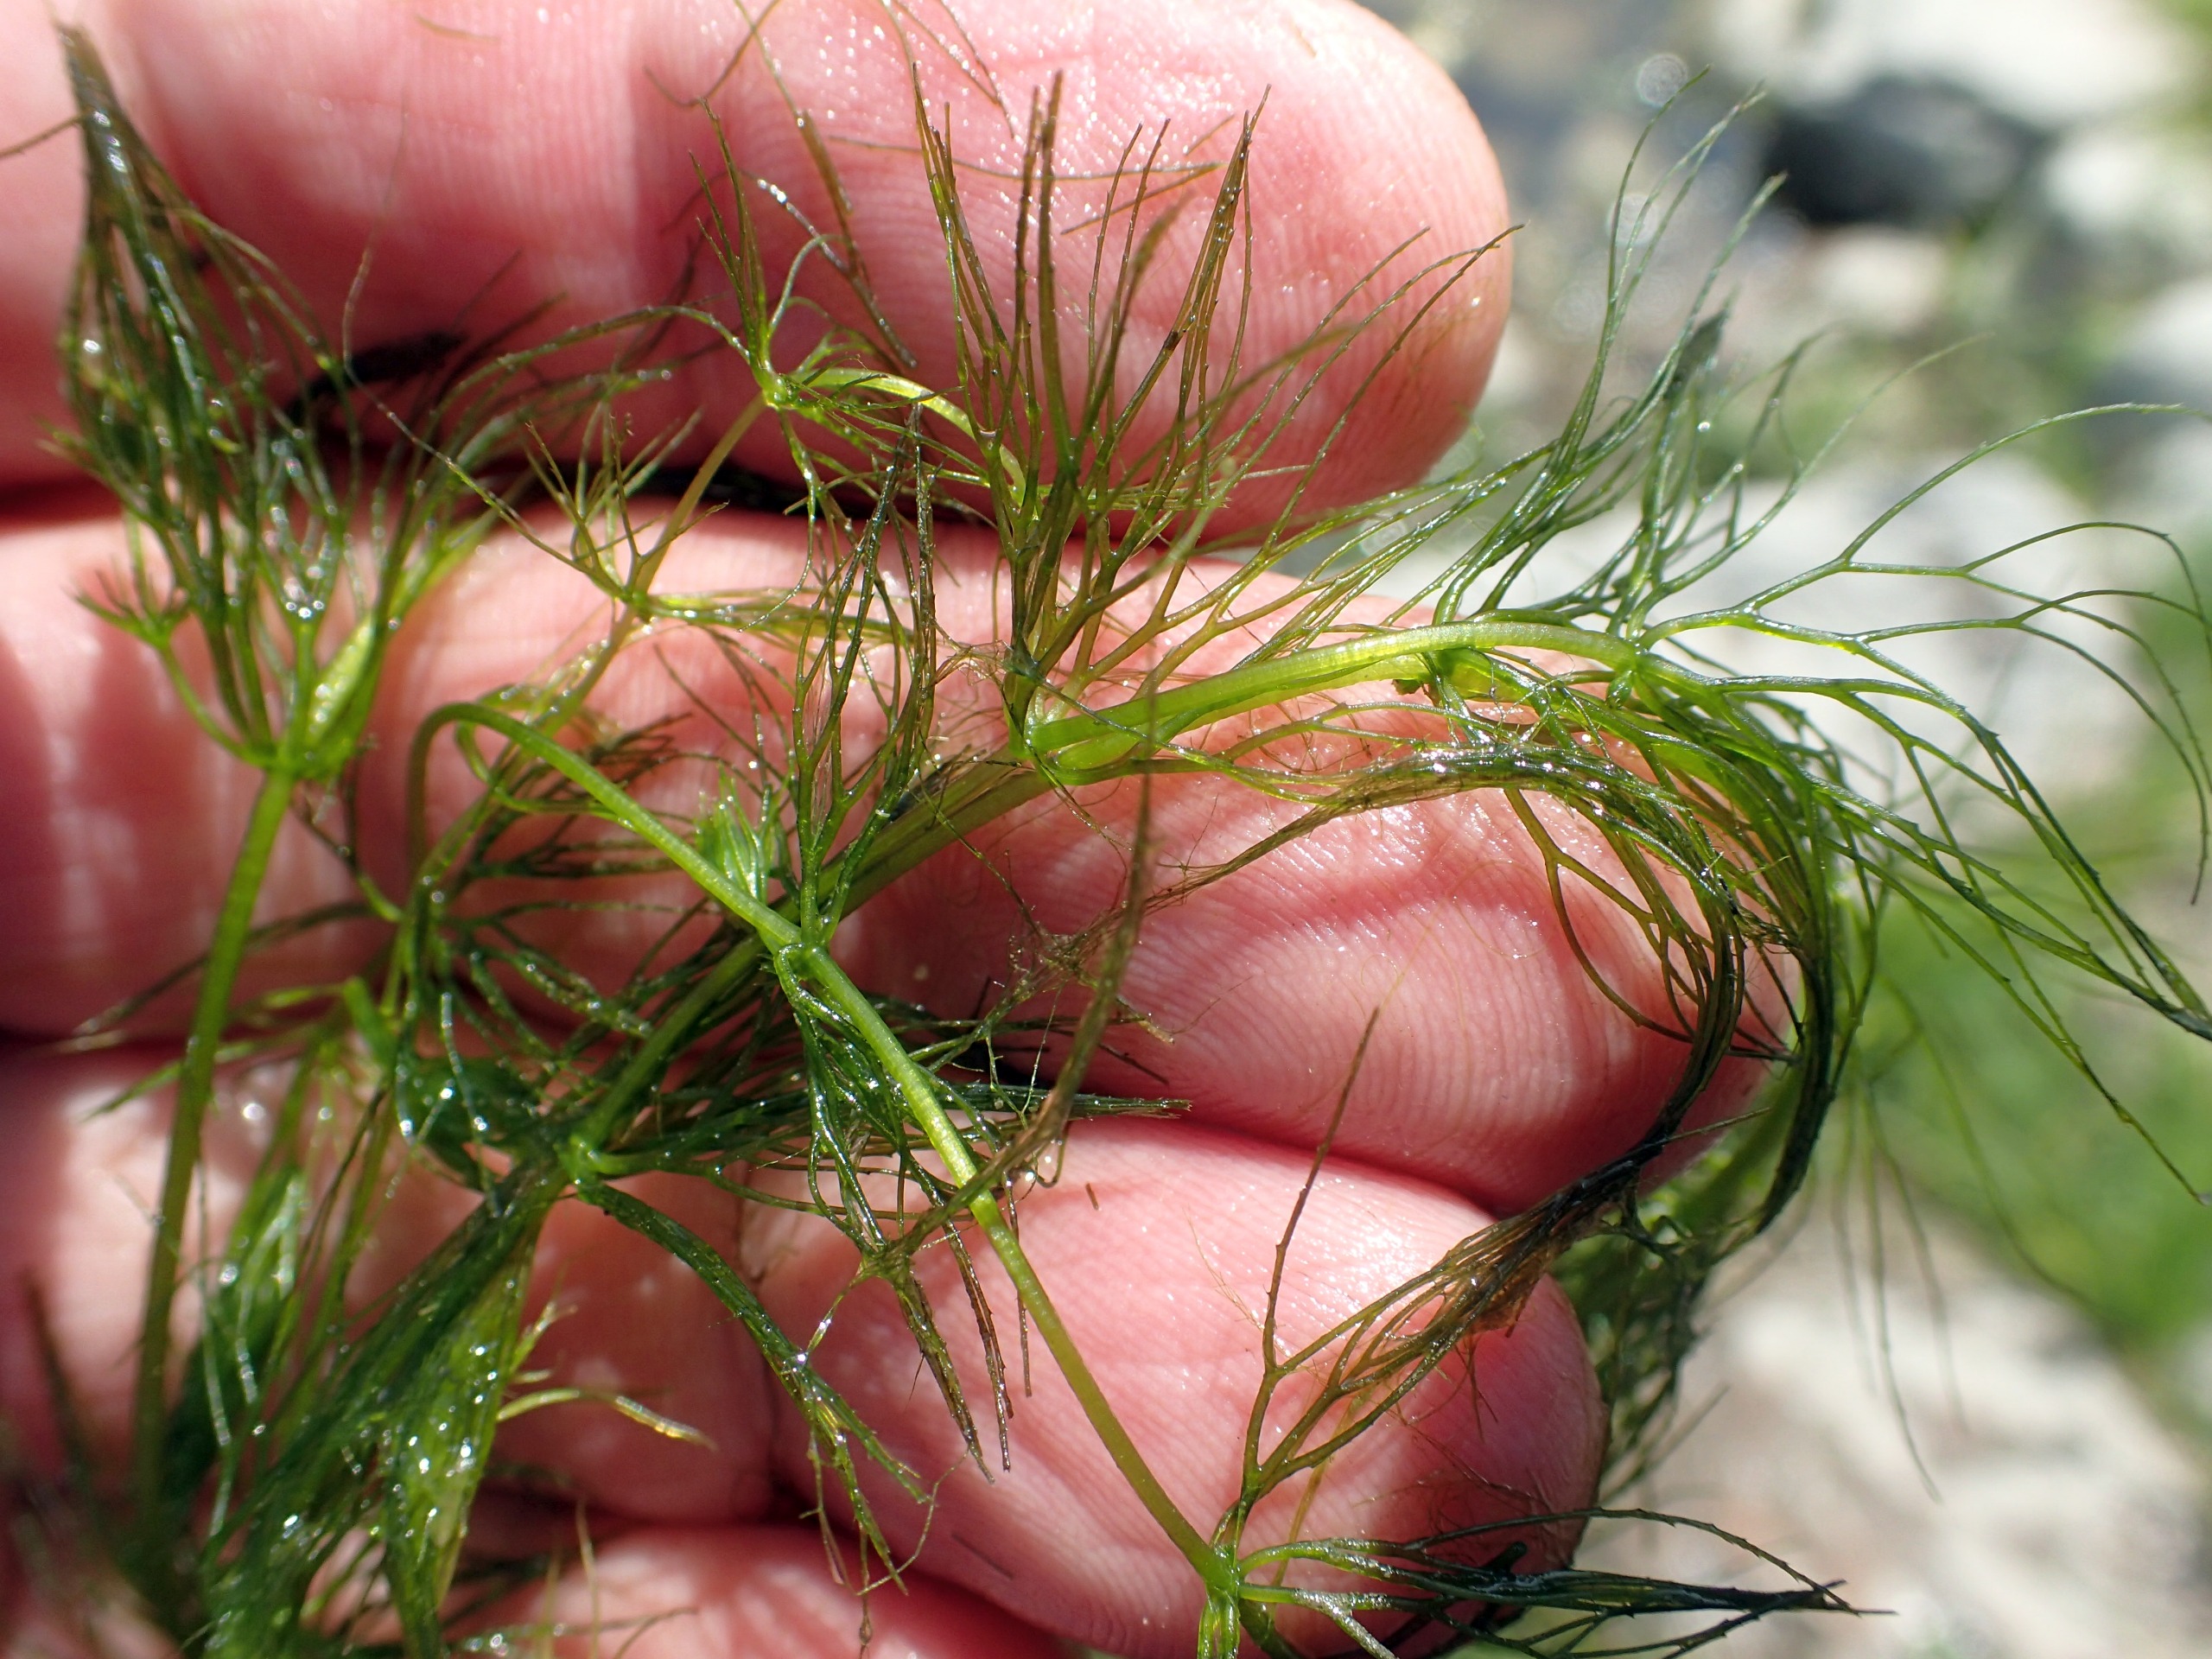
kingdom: Plantae
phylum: Tracheophyta
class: Magnoliopsida
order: Ceratophyllales
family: Ceratophyllaceae
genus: Ceratophyllum
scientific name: Ceratophyllum submersum
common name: Tornløs hornblad
